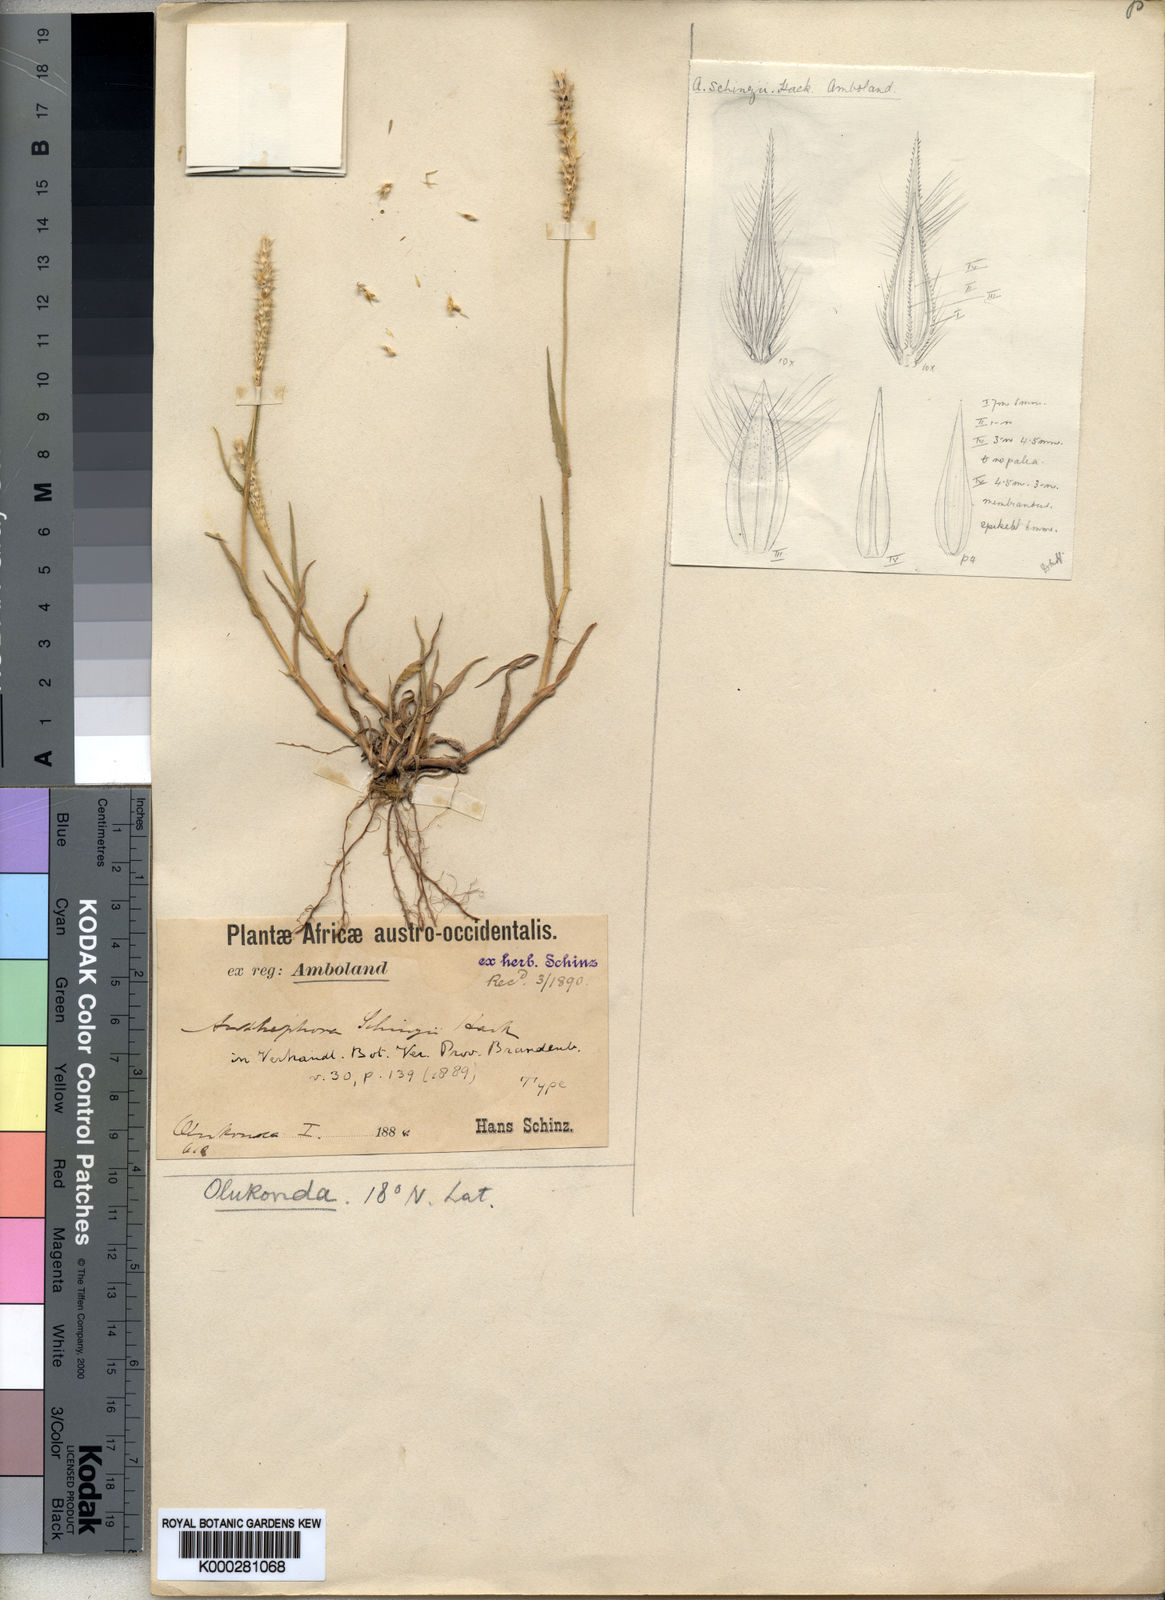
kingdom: Plantae
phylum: Tracheophyta
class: Liliopsida
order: Poales
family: Poaceae
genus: Anthephora
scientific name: Anthephora
